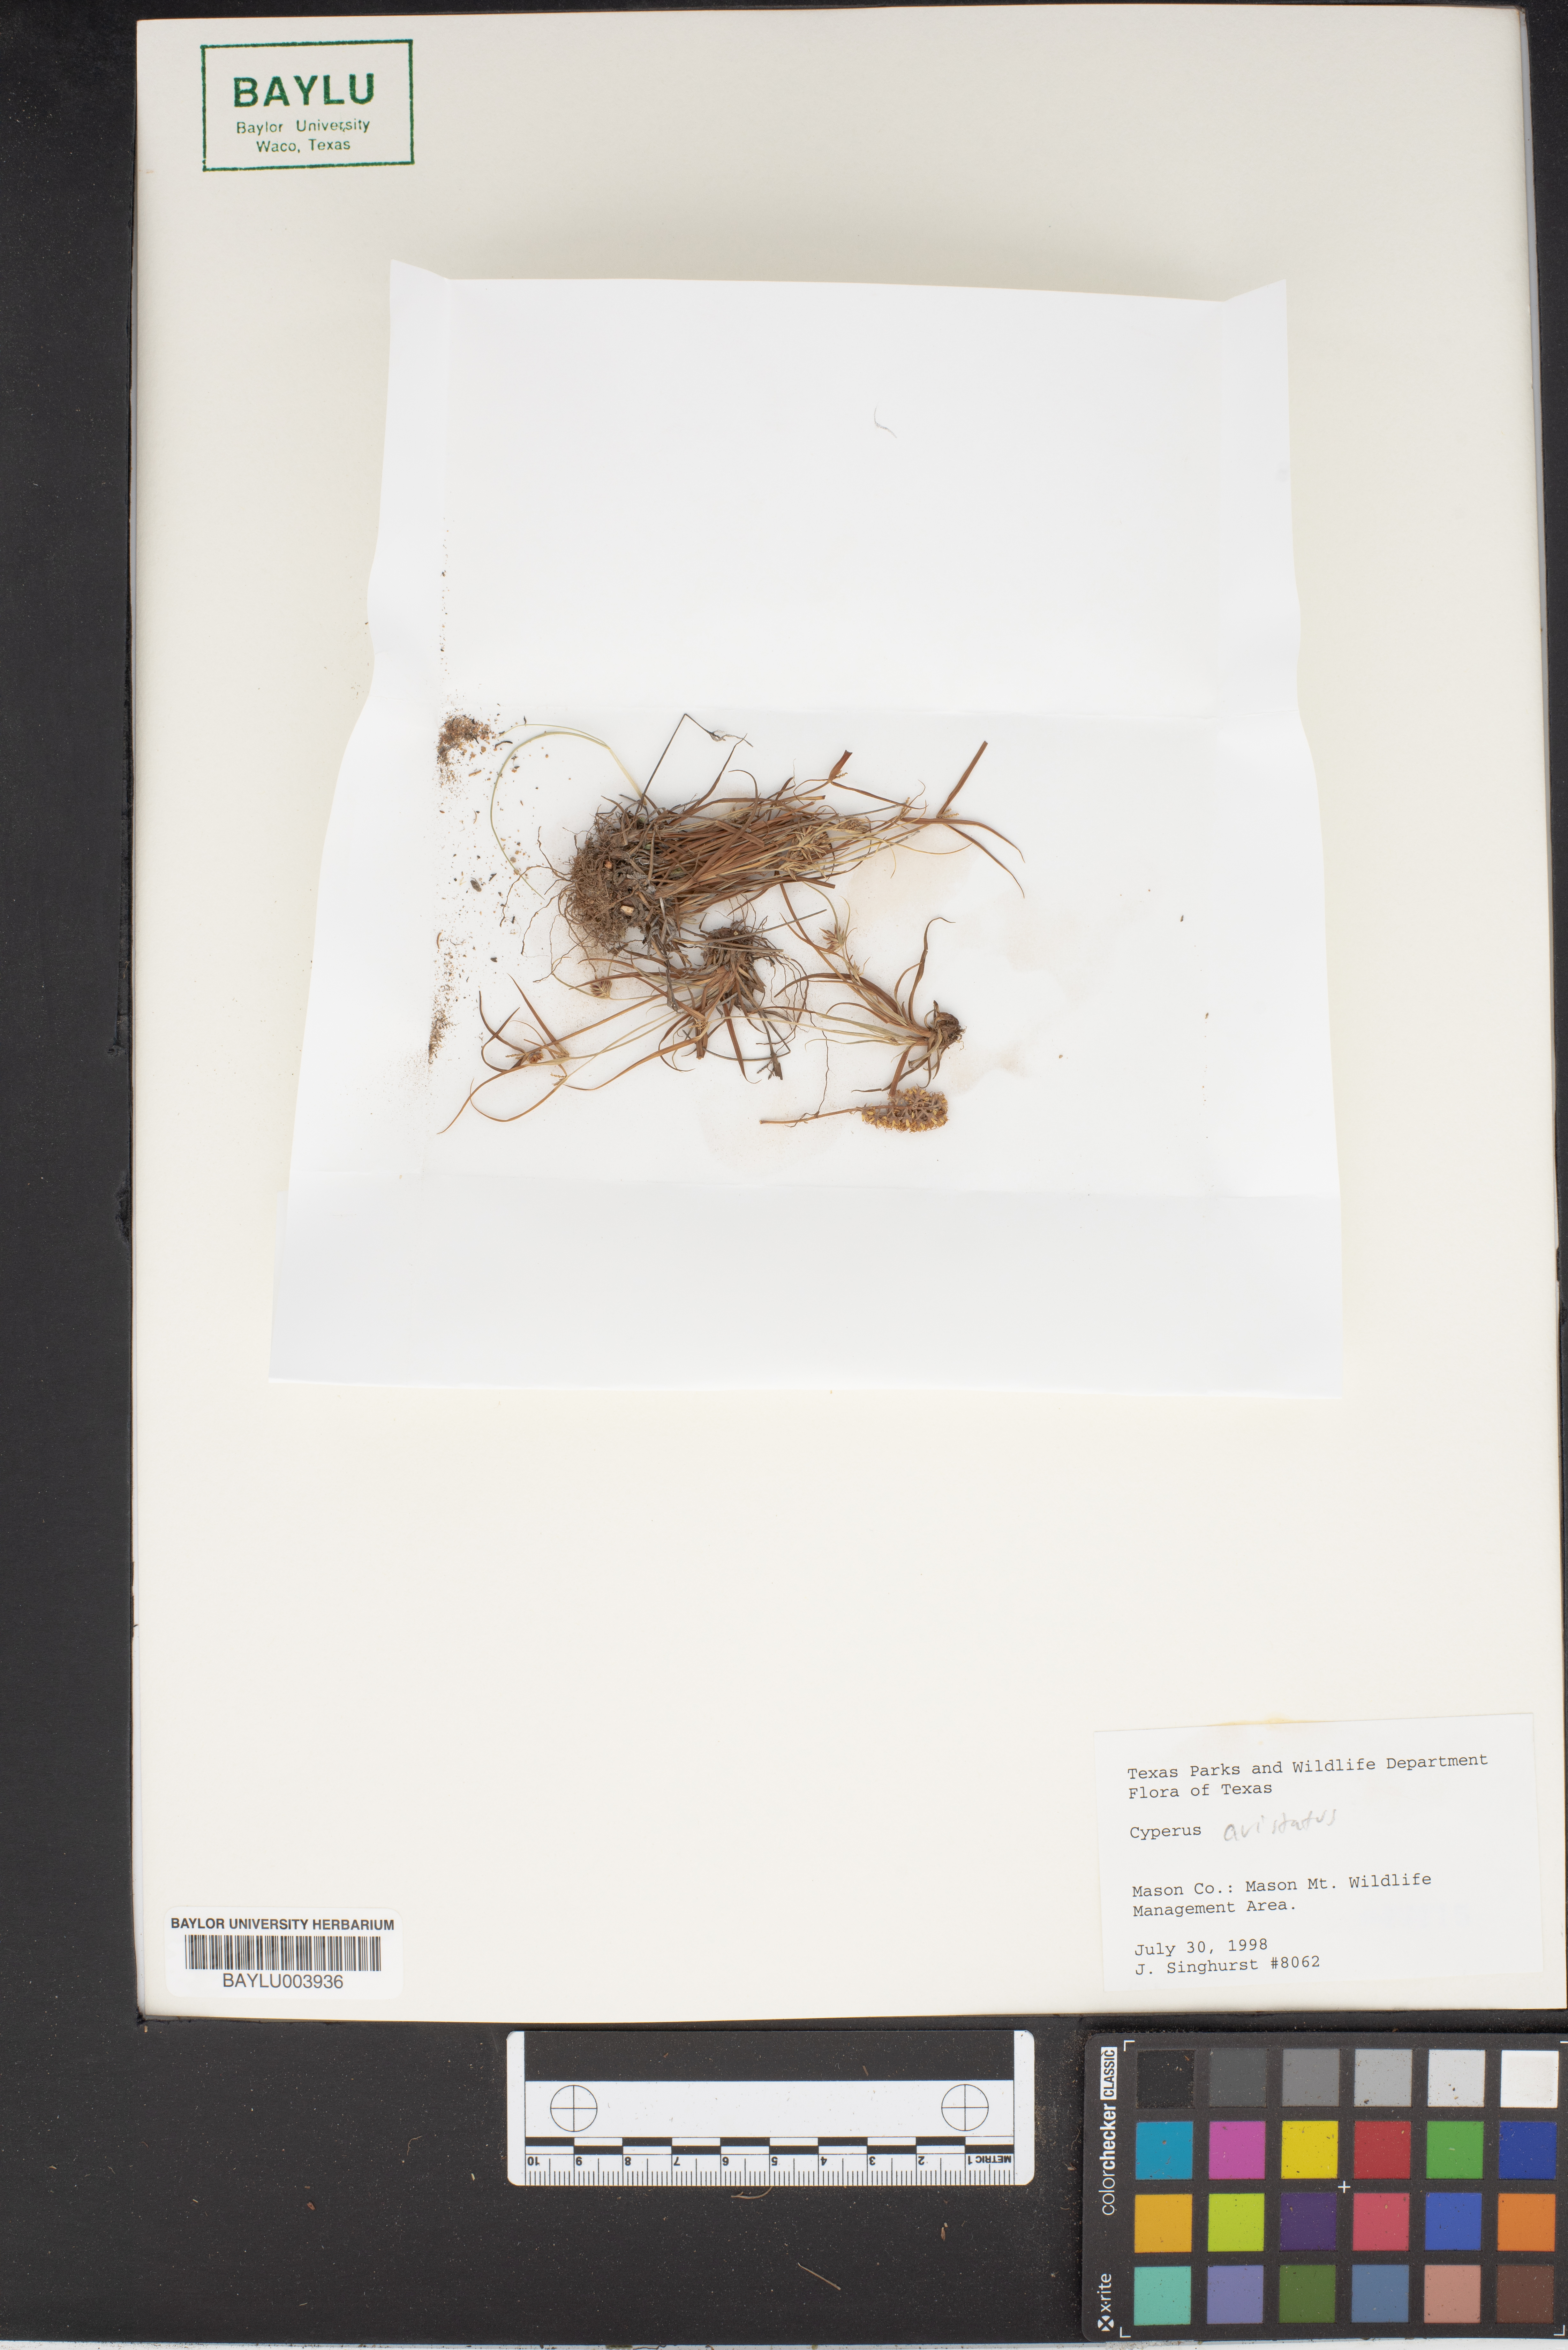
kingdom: Plantae
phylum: Tracheophyta
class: Liliopsida
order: Poales
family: Cyperaceae
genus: Cyperus
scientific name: Cyperus
